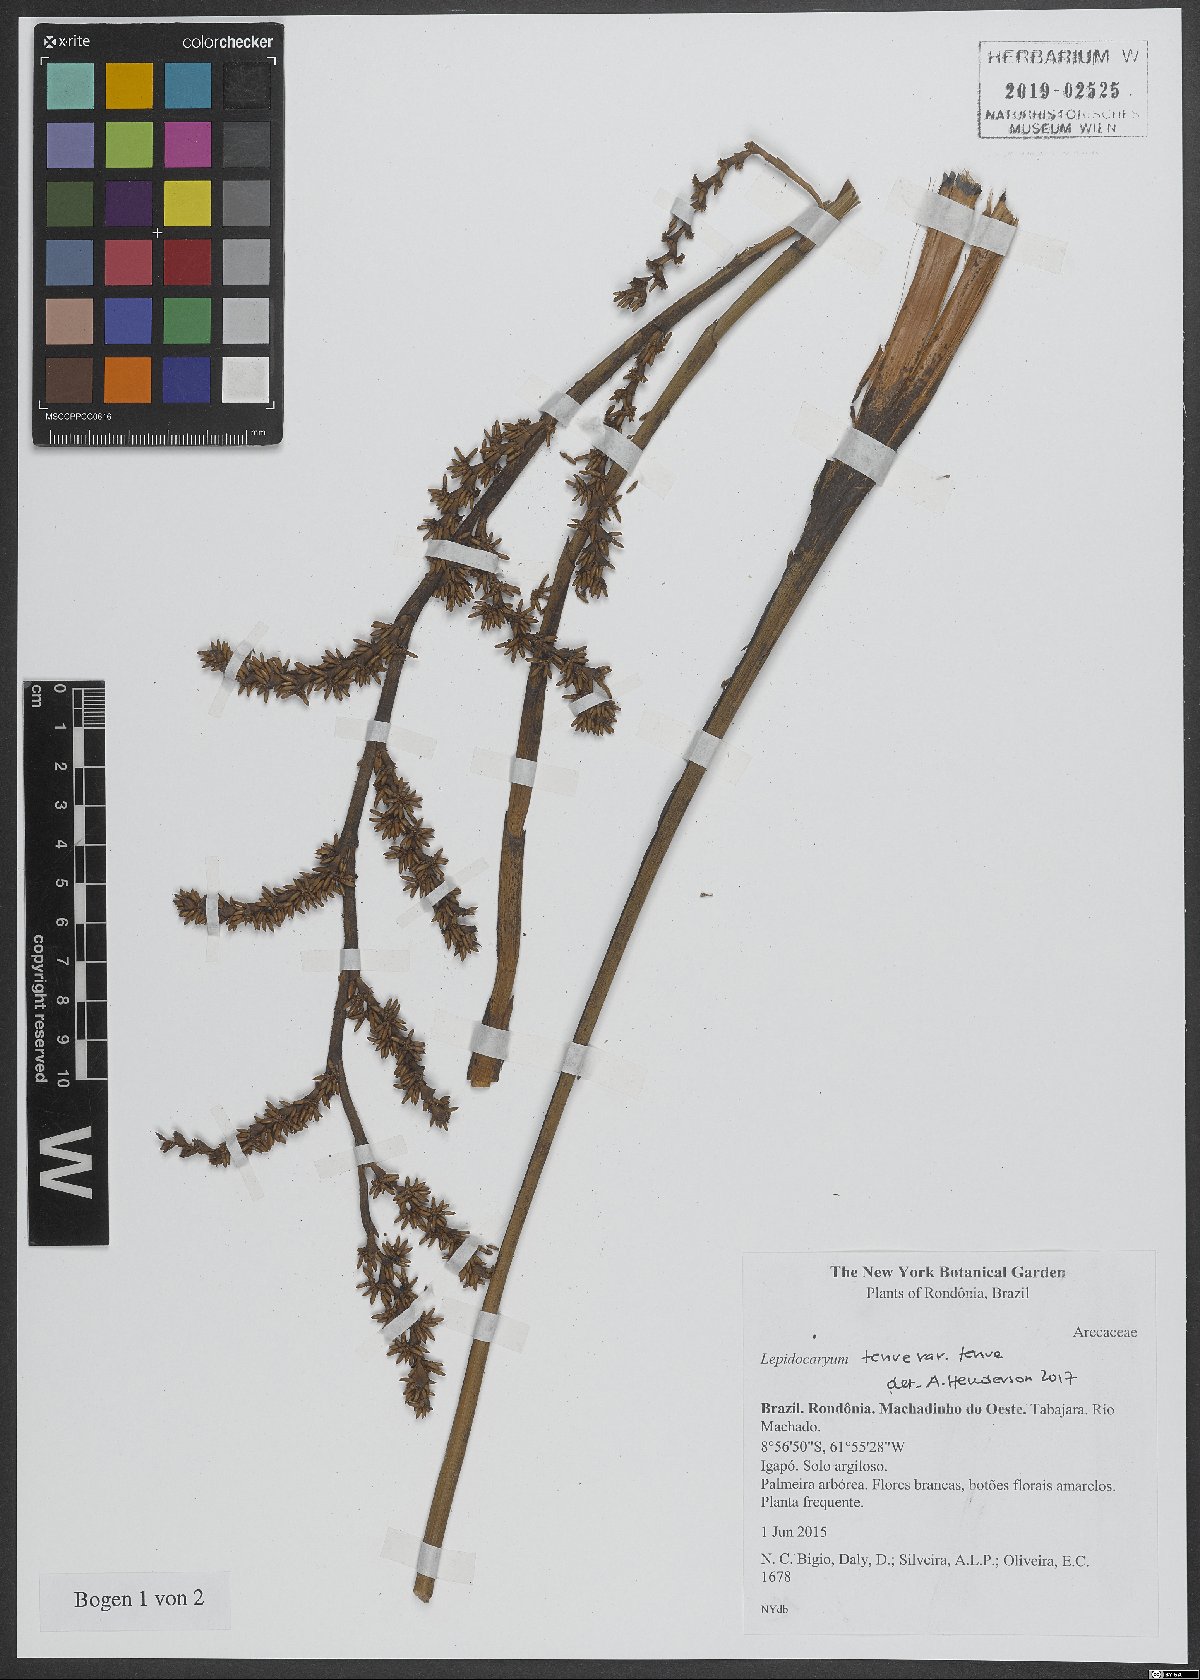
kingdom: Plantae
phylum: Tracheophyta
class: Liliopsida
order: Arecales
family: Arecaceae
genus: Lepidocaryum
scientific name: Lepidocaryum tenue
